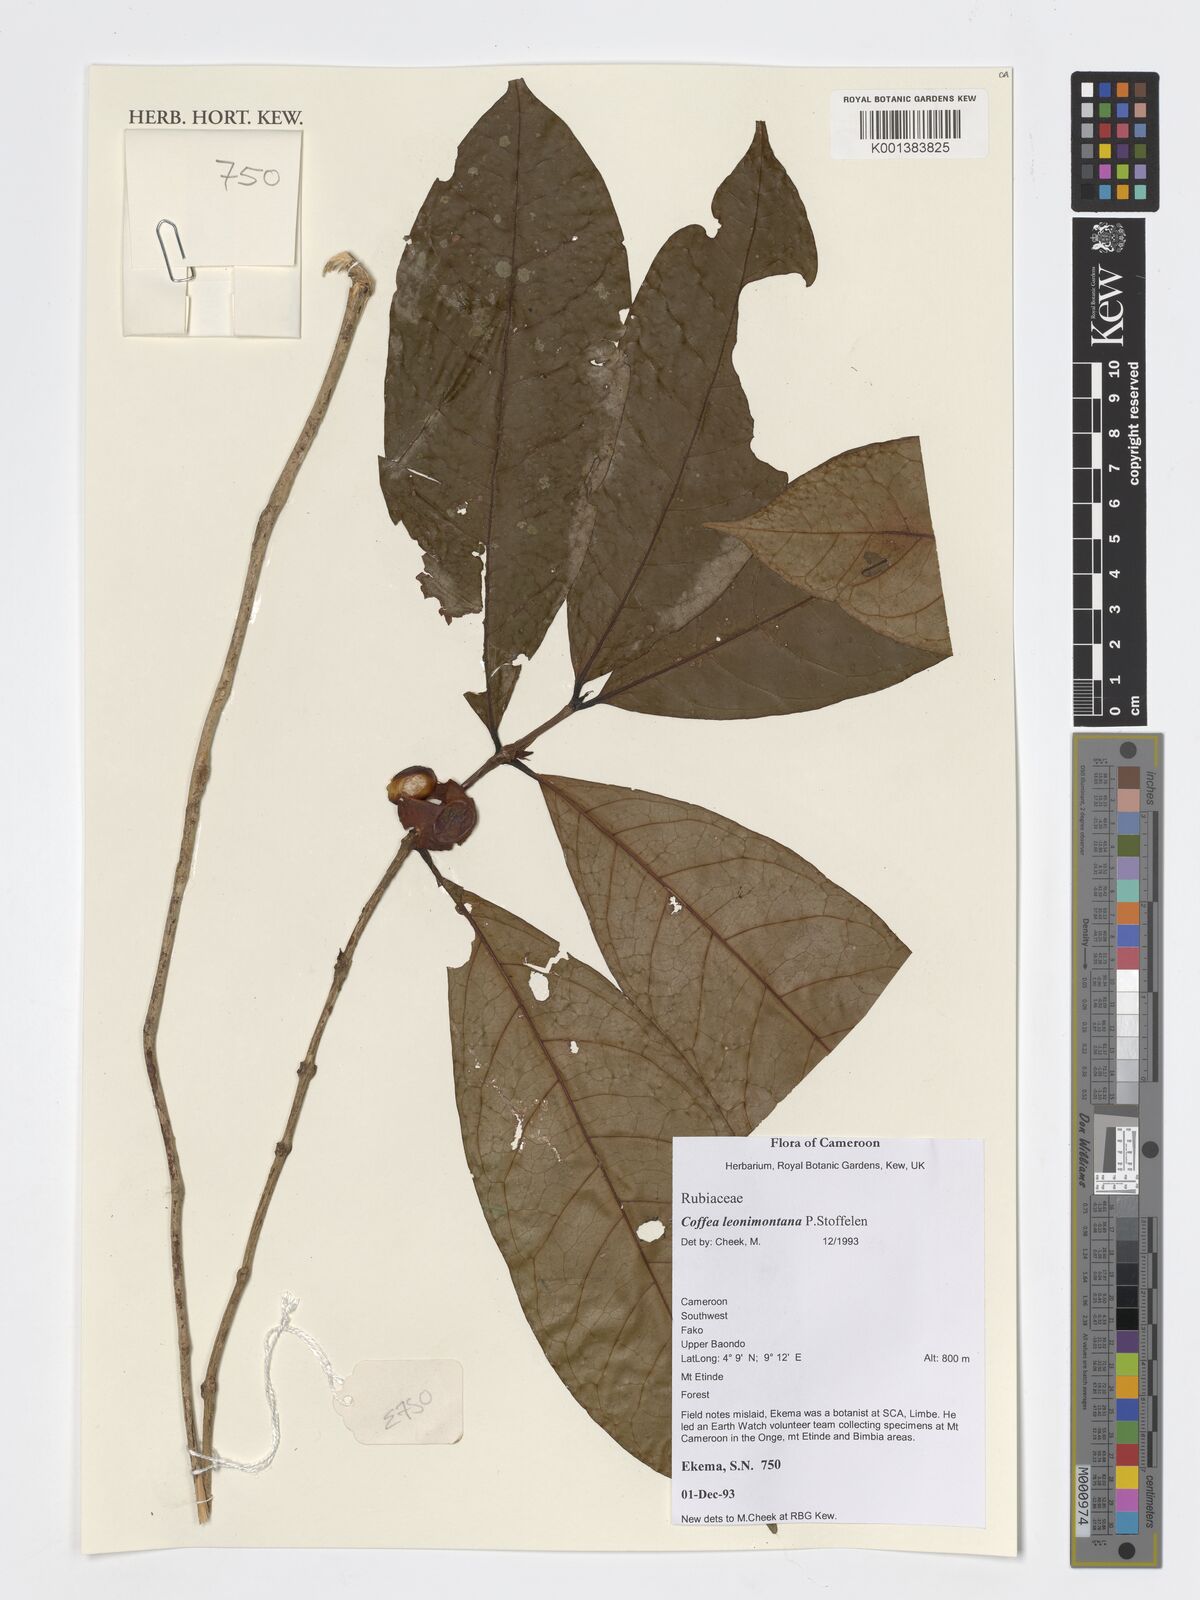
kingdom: Plantae
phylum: Tracheophyta
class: Magnoliopsida
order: Gentianales
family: Rubiaceae
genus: Coffea
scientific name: Coffea leonimontana
